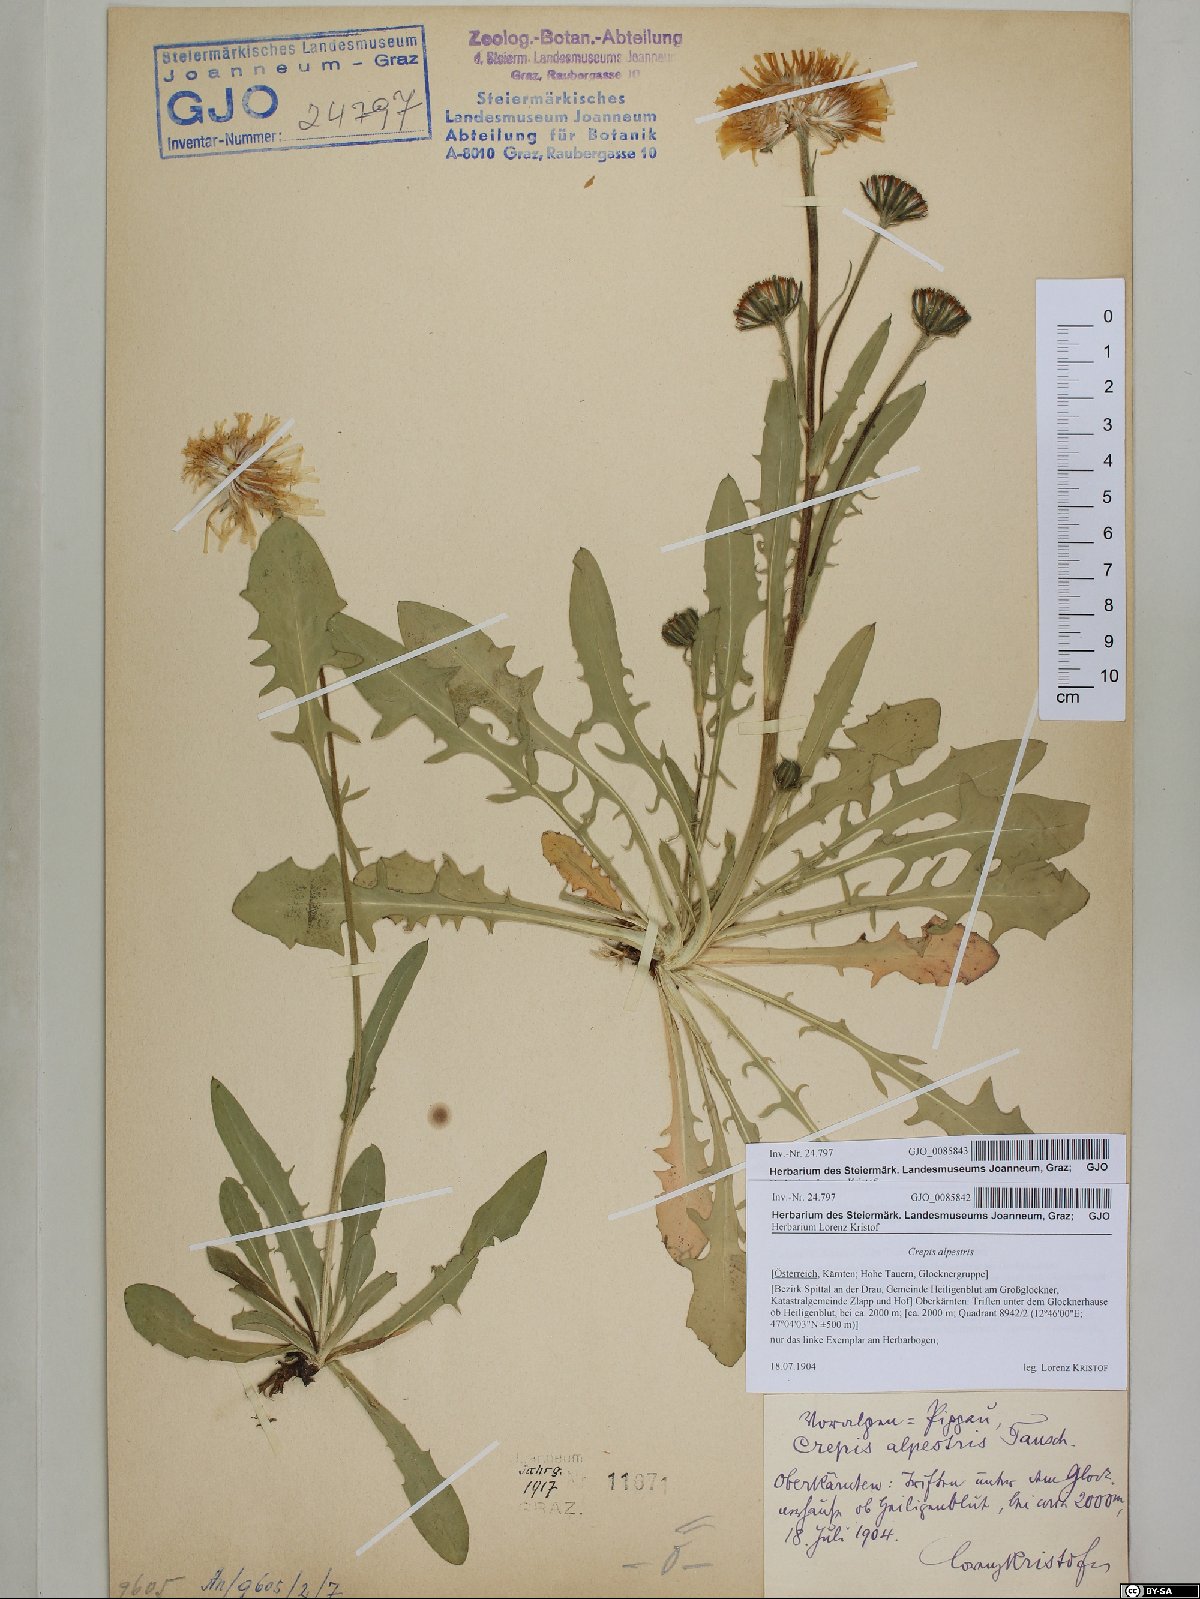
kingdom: Plantae
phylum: Tracheophyta
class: Magnoliopsida
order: Asterales
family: Asteraceae
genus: Crepis
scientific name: Crepis blattarioides
